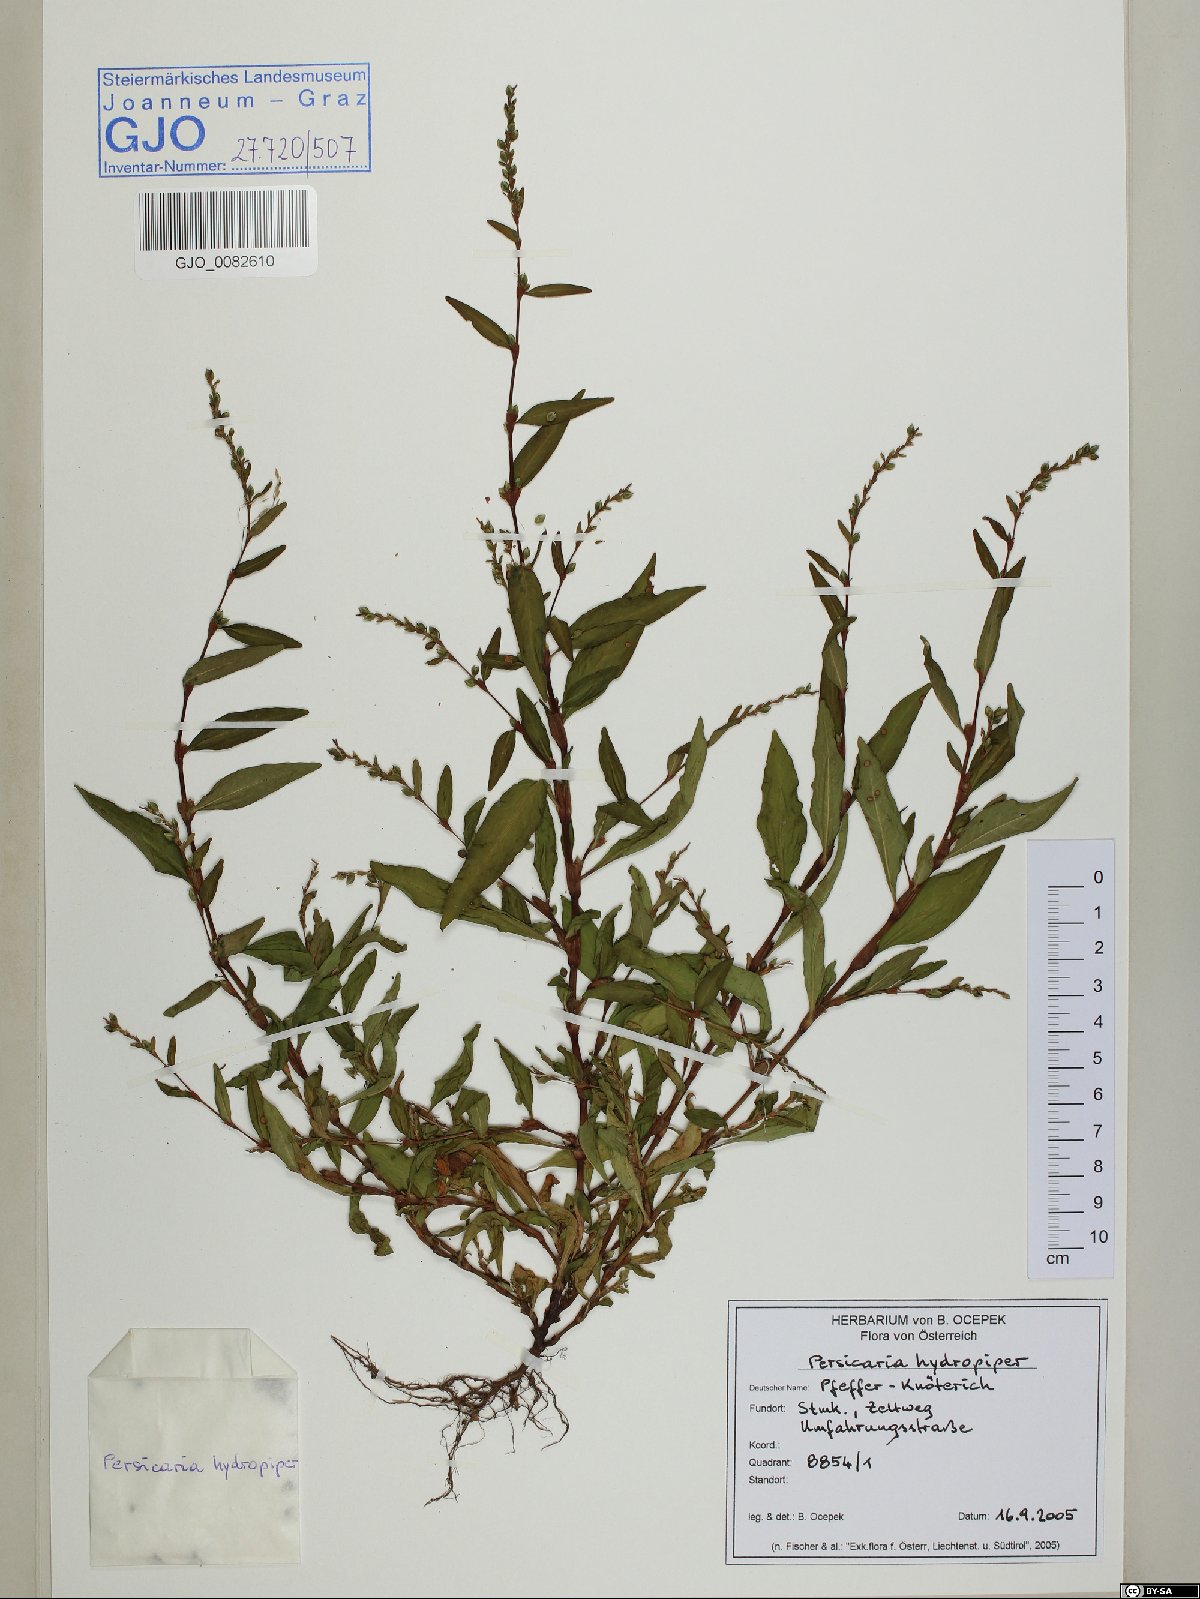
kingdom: Plantae
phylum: Tracheophyta
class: Magnoliopsida
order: Caryophyllales
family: Polygonaceae
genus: Persicaria
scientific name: Persicaria hydropiper
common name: Water-pepper
